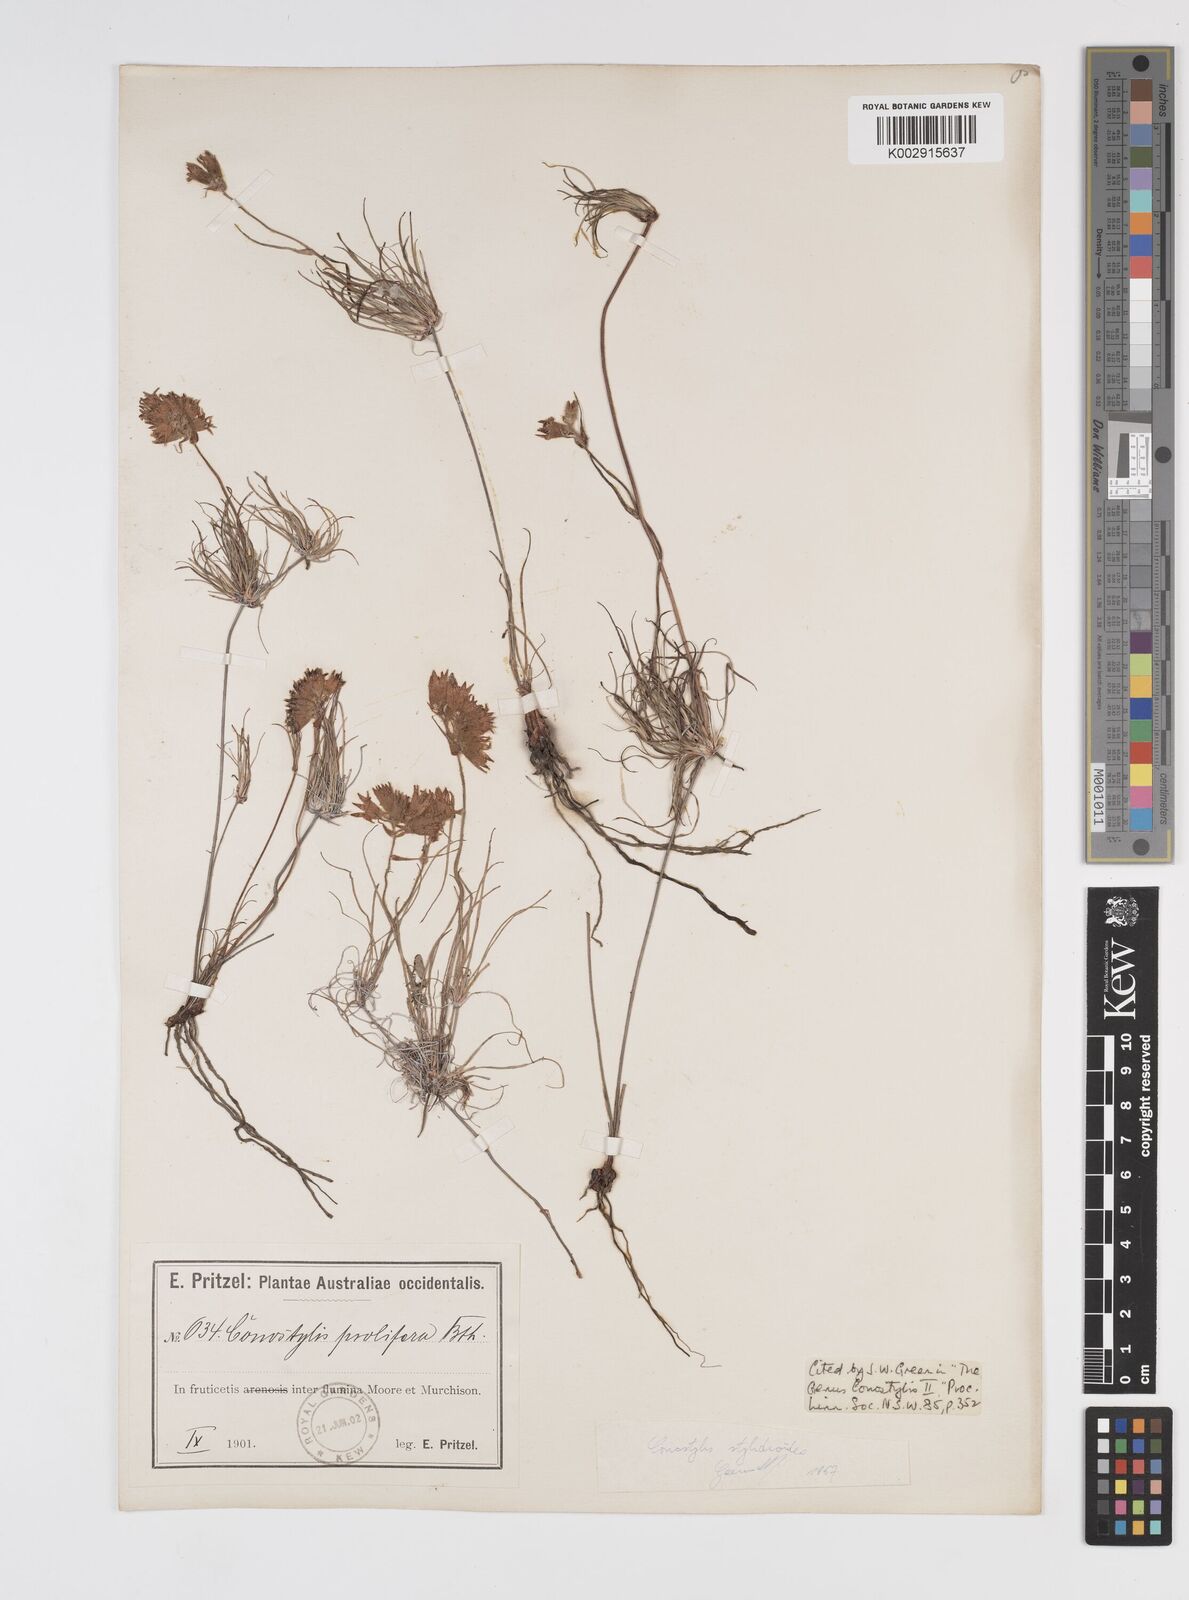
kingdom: Plantae
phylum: Tracheophyta
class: Liliopsida
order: Commelinales
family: Haemodoraceae
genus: Conostylis
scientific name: Conostylis stylidioides
